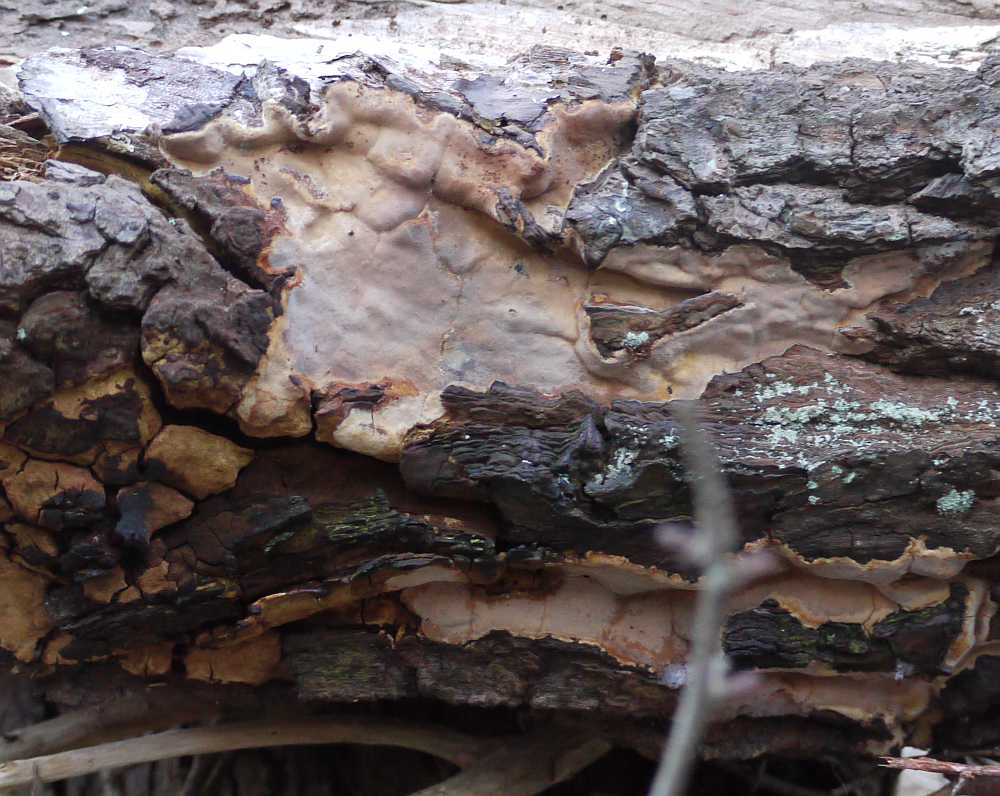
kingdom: Fungi
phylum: Basidiomycota
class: Agaricomycetes
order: Russulales
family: Peniophoraceae
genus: Scytinostroma
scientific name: Scytinostroma hemidichophyticum
